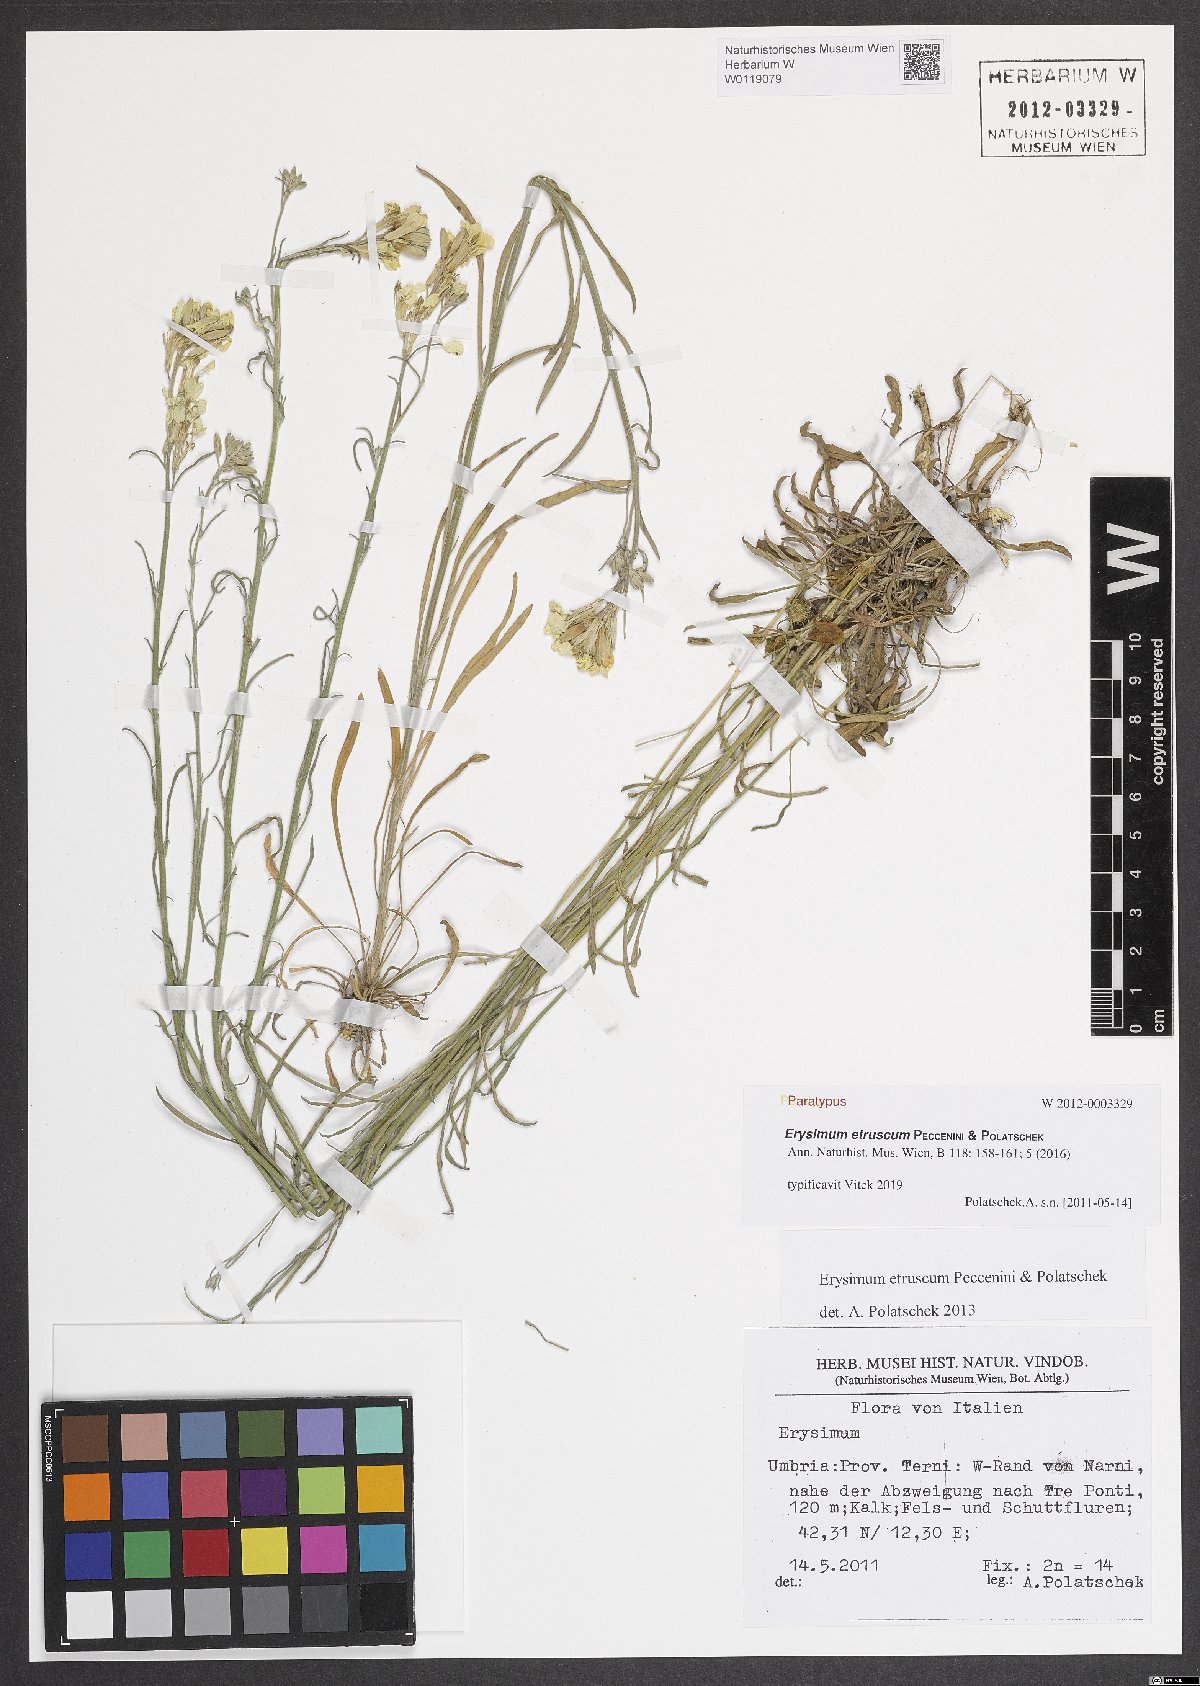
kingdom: Plantae
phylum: Tracheophyta
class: Magnoliopsida
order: Brassicales
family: Brassicaceae
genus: Erysimum
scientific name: Erysimum pseudorhaeticum
